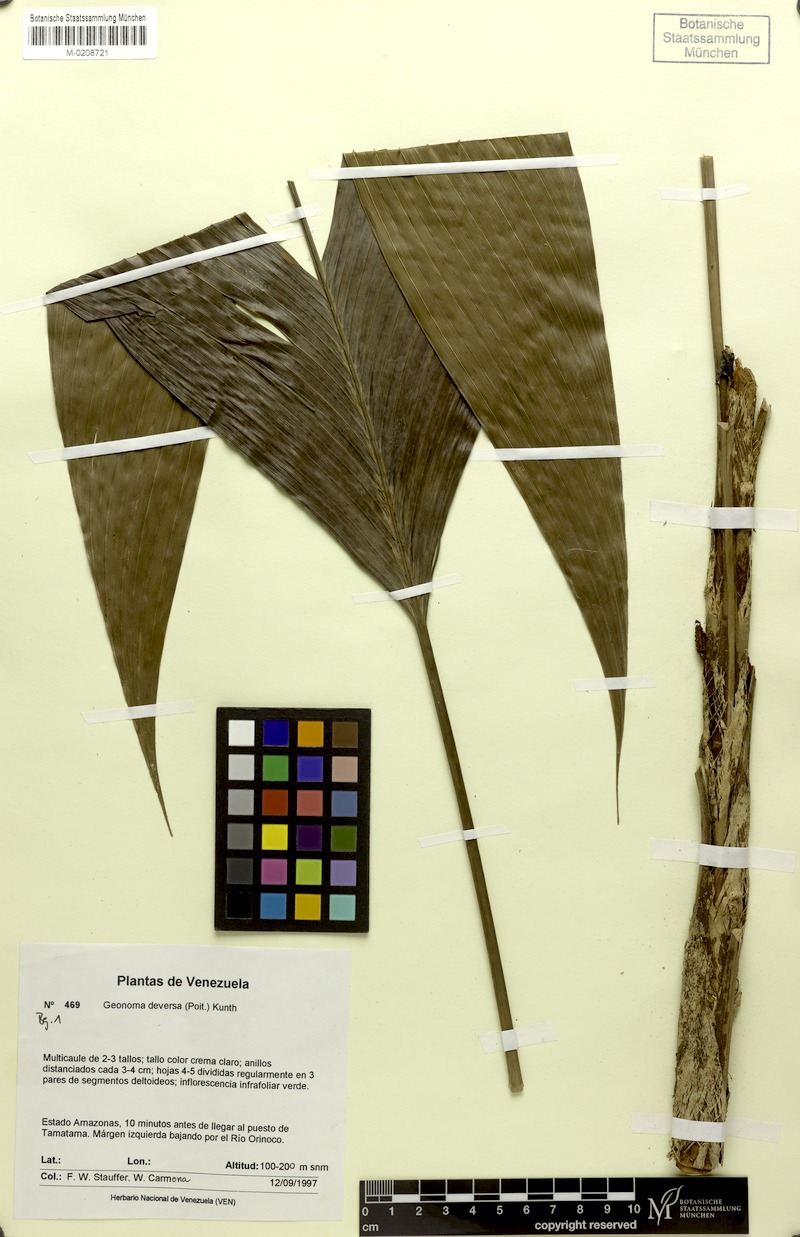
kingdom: Plantae
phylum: Tracheophyta
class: Liliopsida
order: Arecales
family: Arecaceae
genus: Geonoma
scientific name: Geonoma deversa
